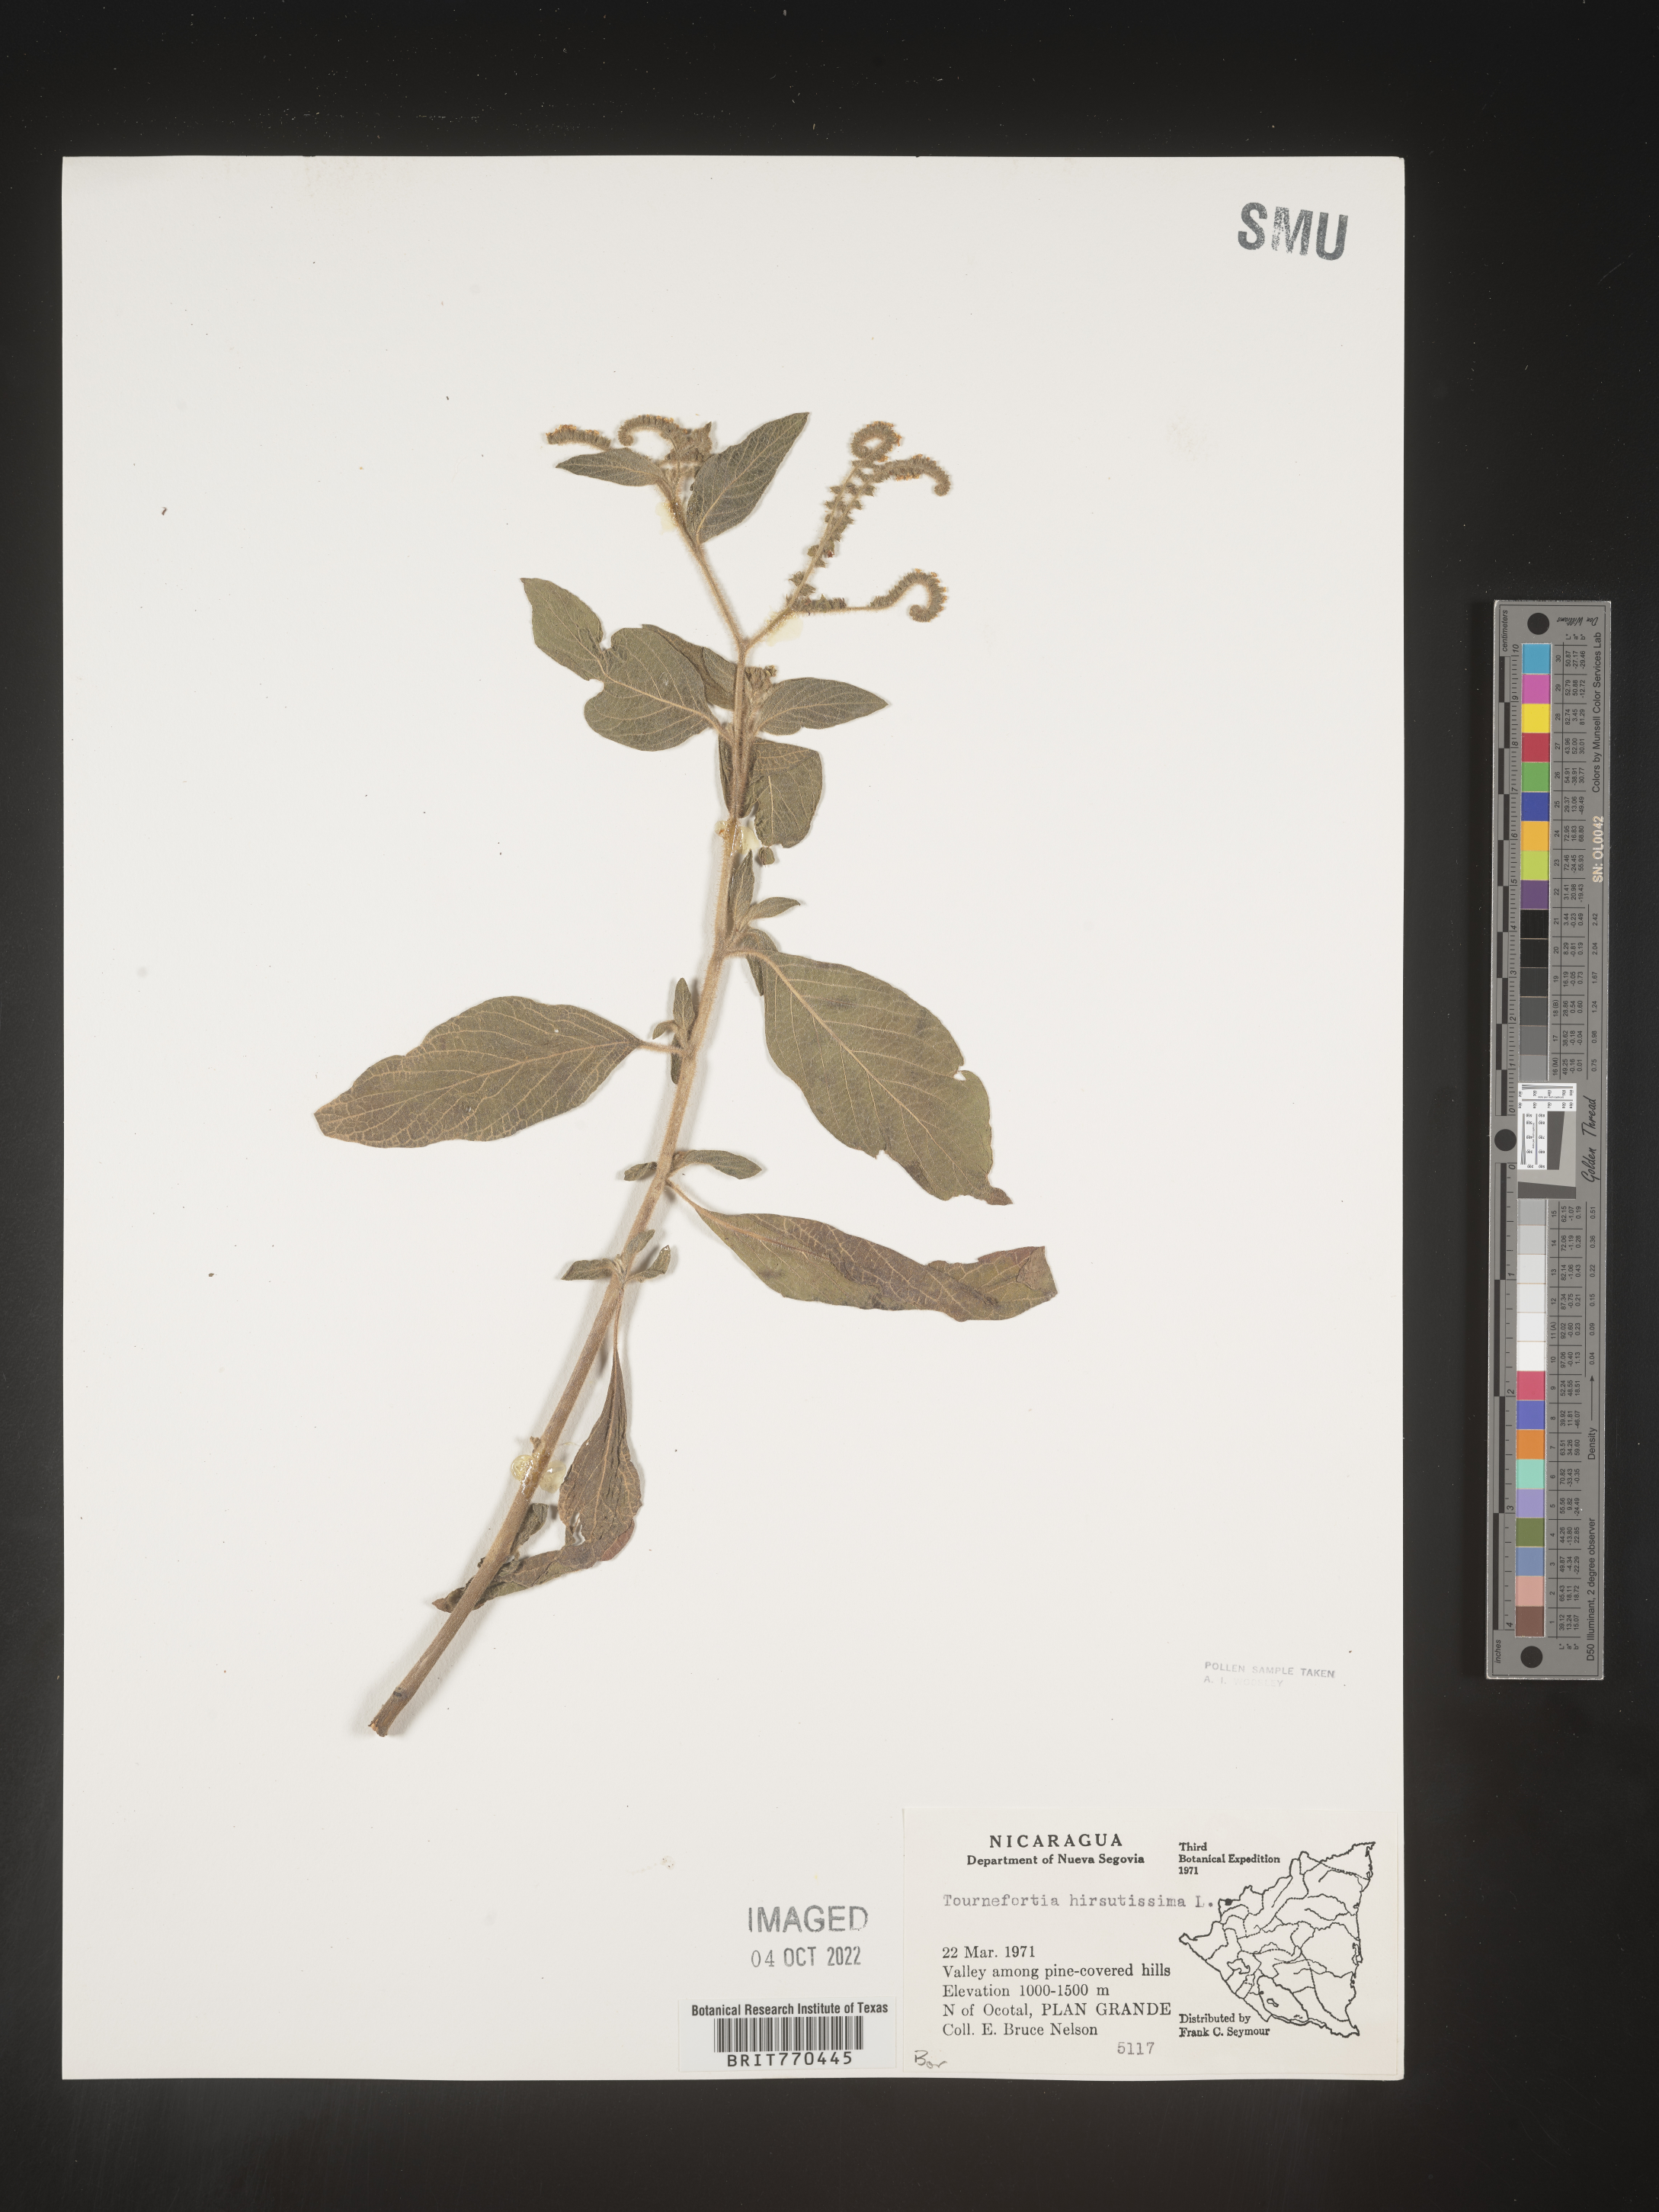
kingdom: Plantae
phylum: Tracheophyta
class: Magnoliopsida
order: Boraginales
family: Heliotropiaceae
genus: Tournefortia
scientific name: Tournefortia
